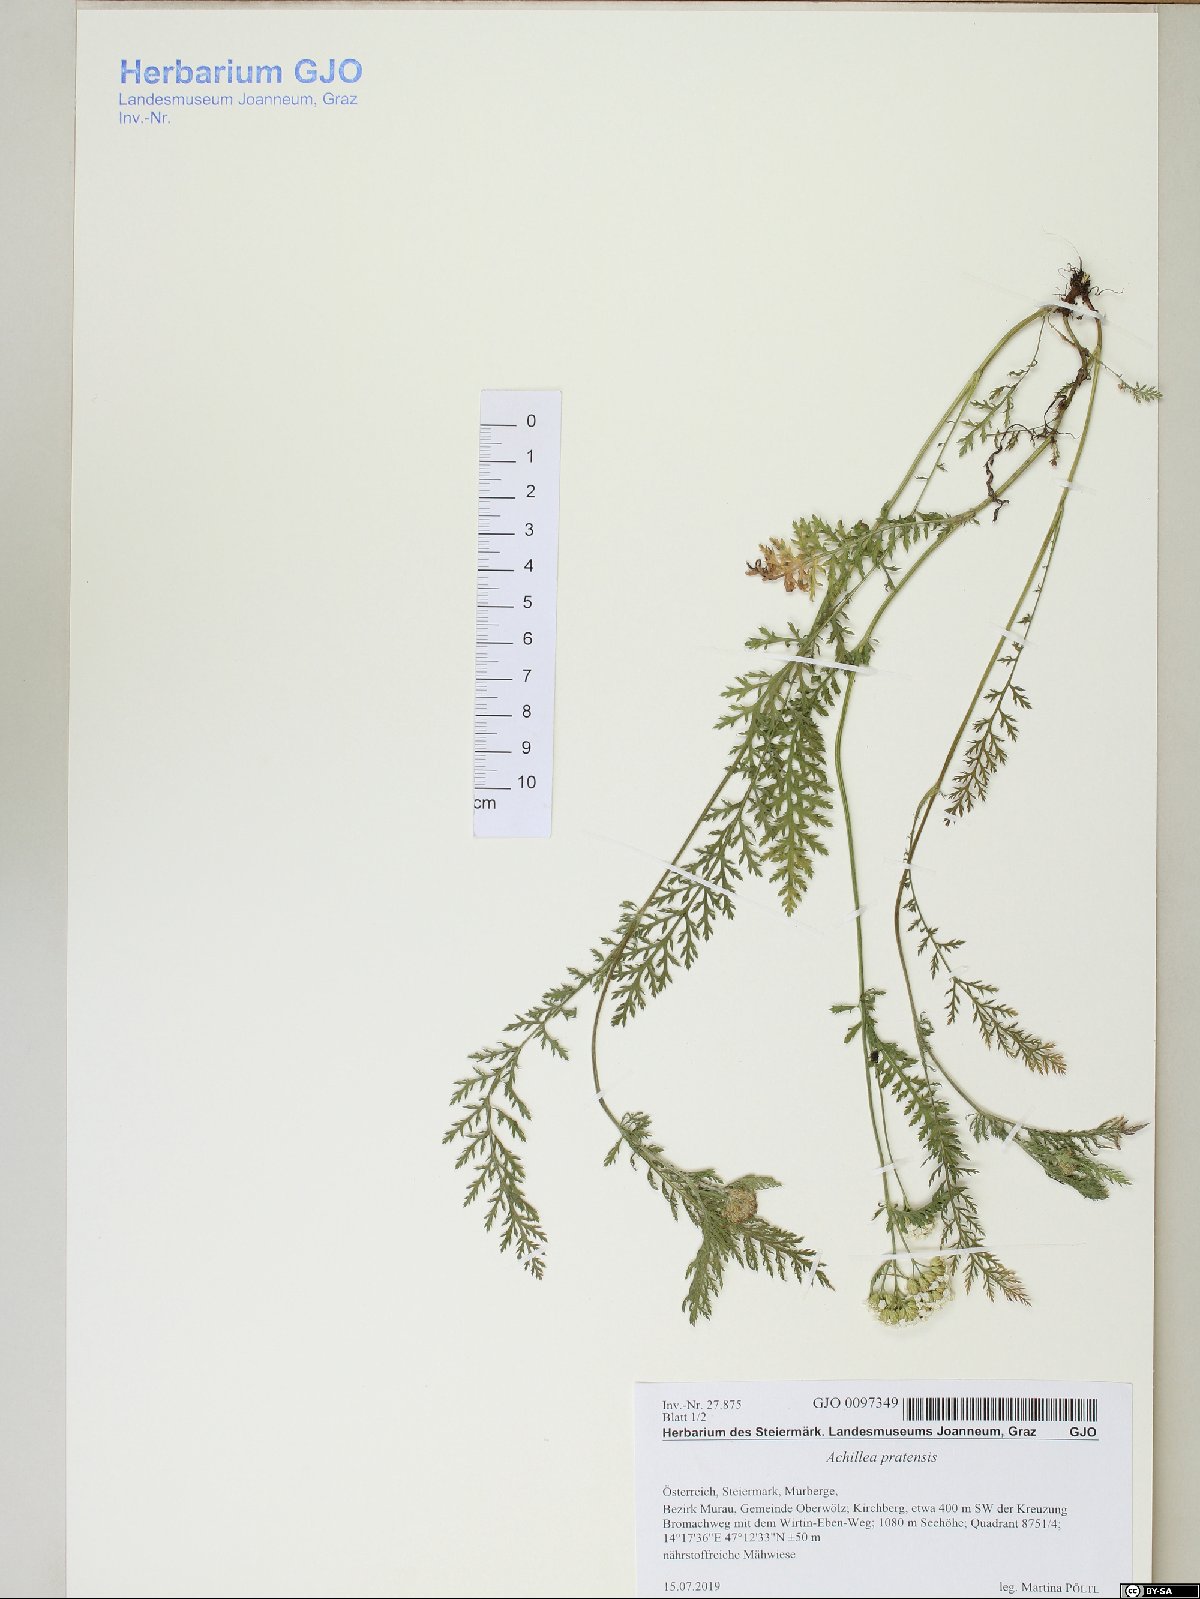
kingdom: Plantae
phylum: Tracheophyta
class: Magnoliopsida
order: Asterales
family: Asteraceae
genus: Achillea
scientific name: Achillea pratensis
